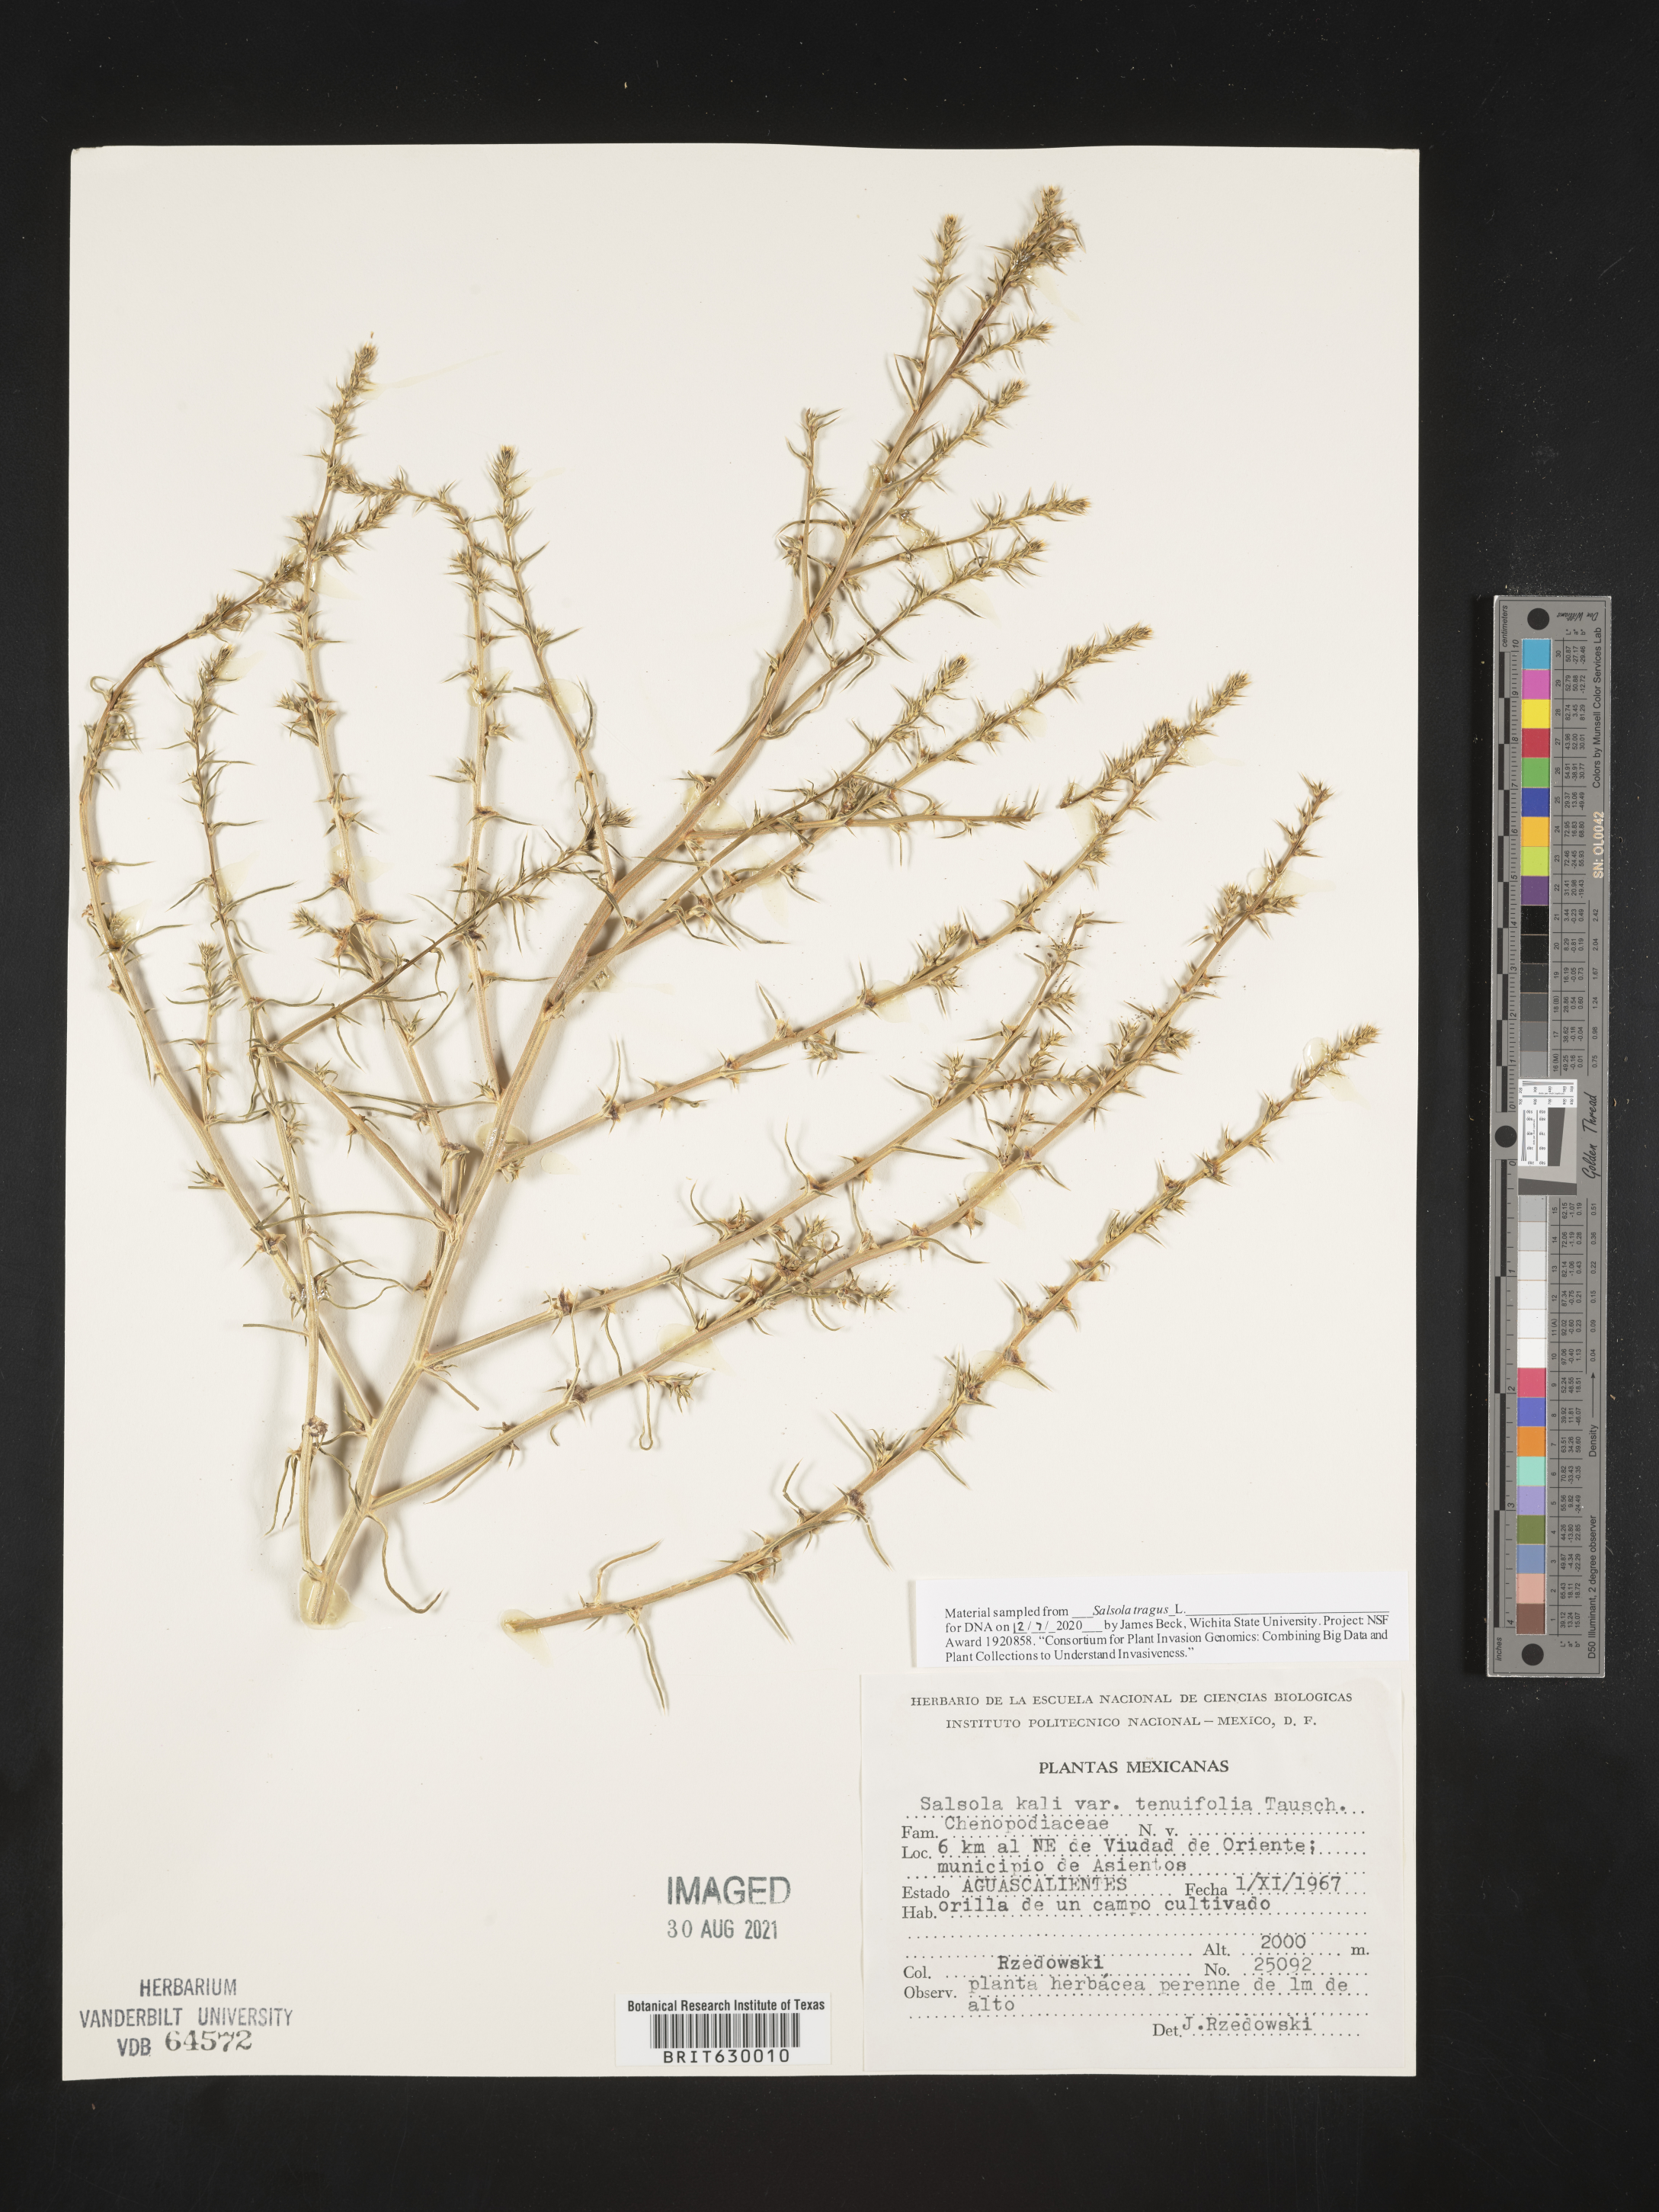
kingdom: Plantae
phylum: Tracheophyta
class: Magnoliopsida
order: Caryophyllales
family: Amaranthaceae
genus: Salsola
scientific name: Salsola
